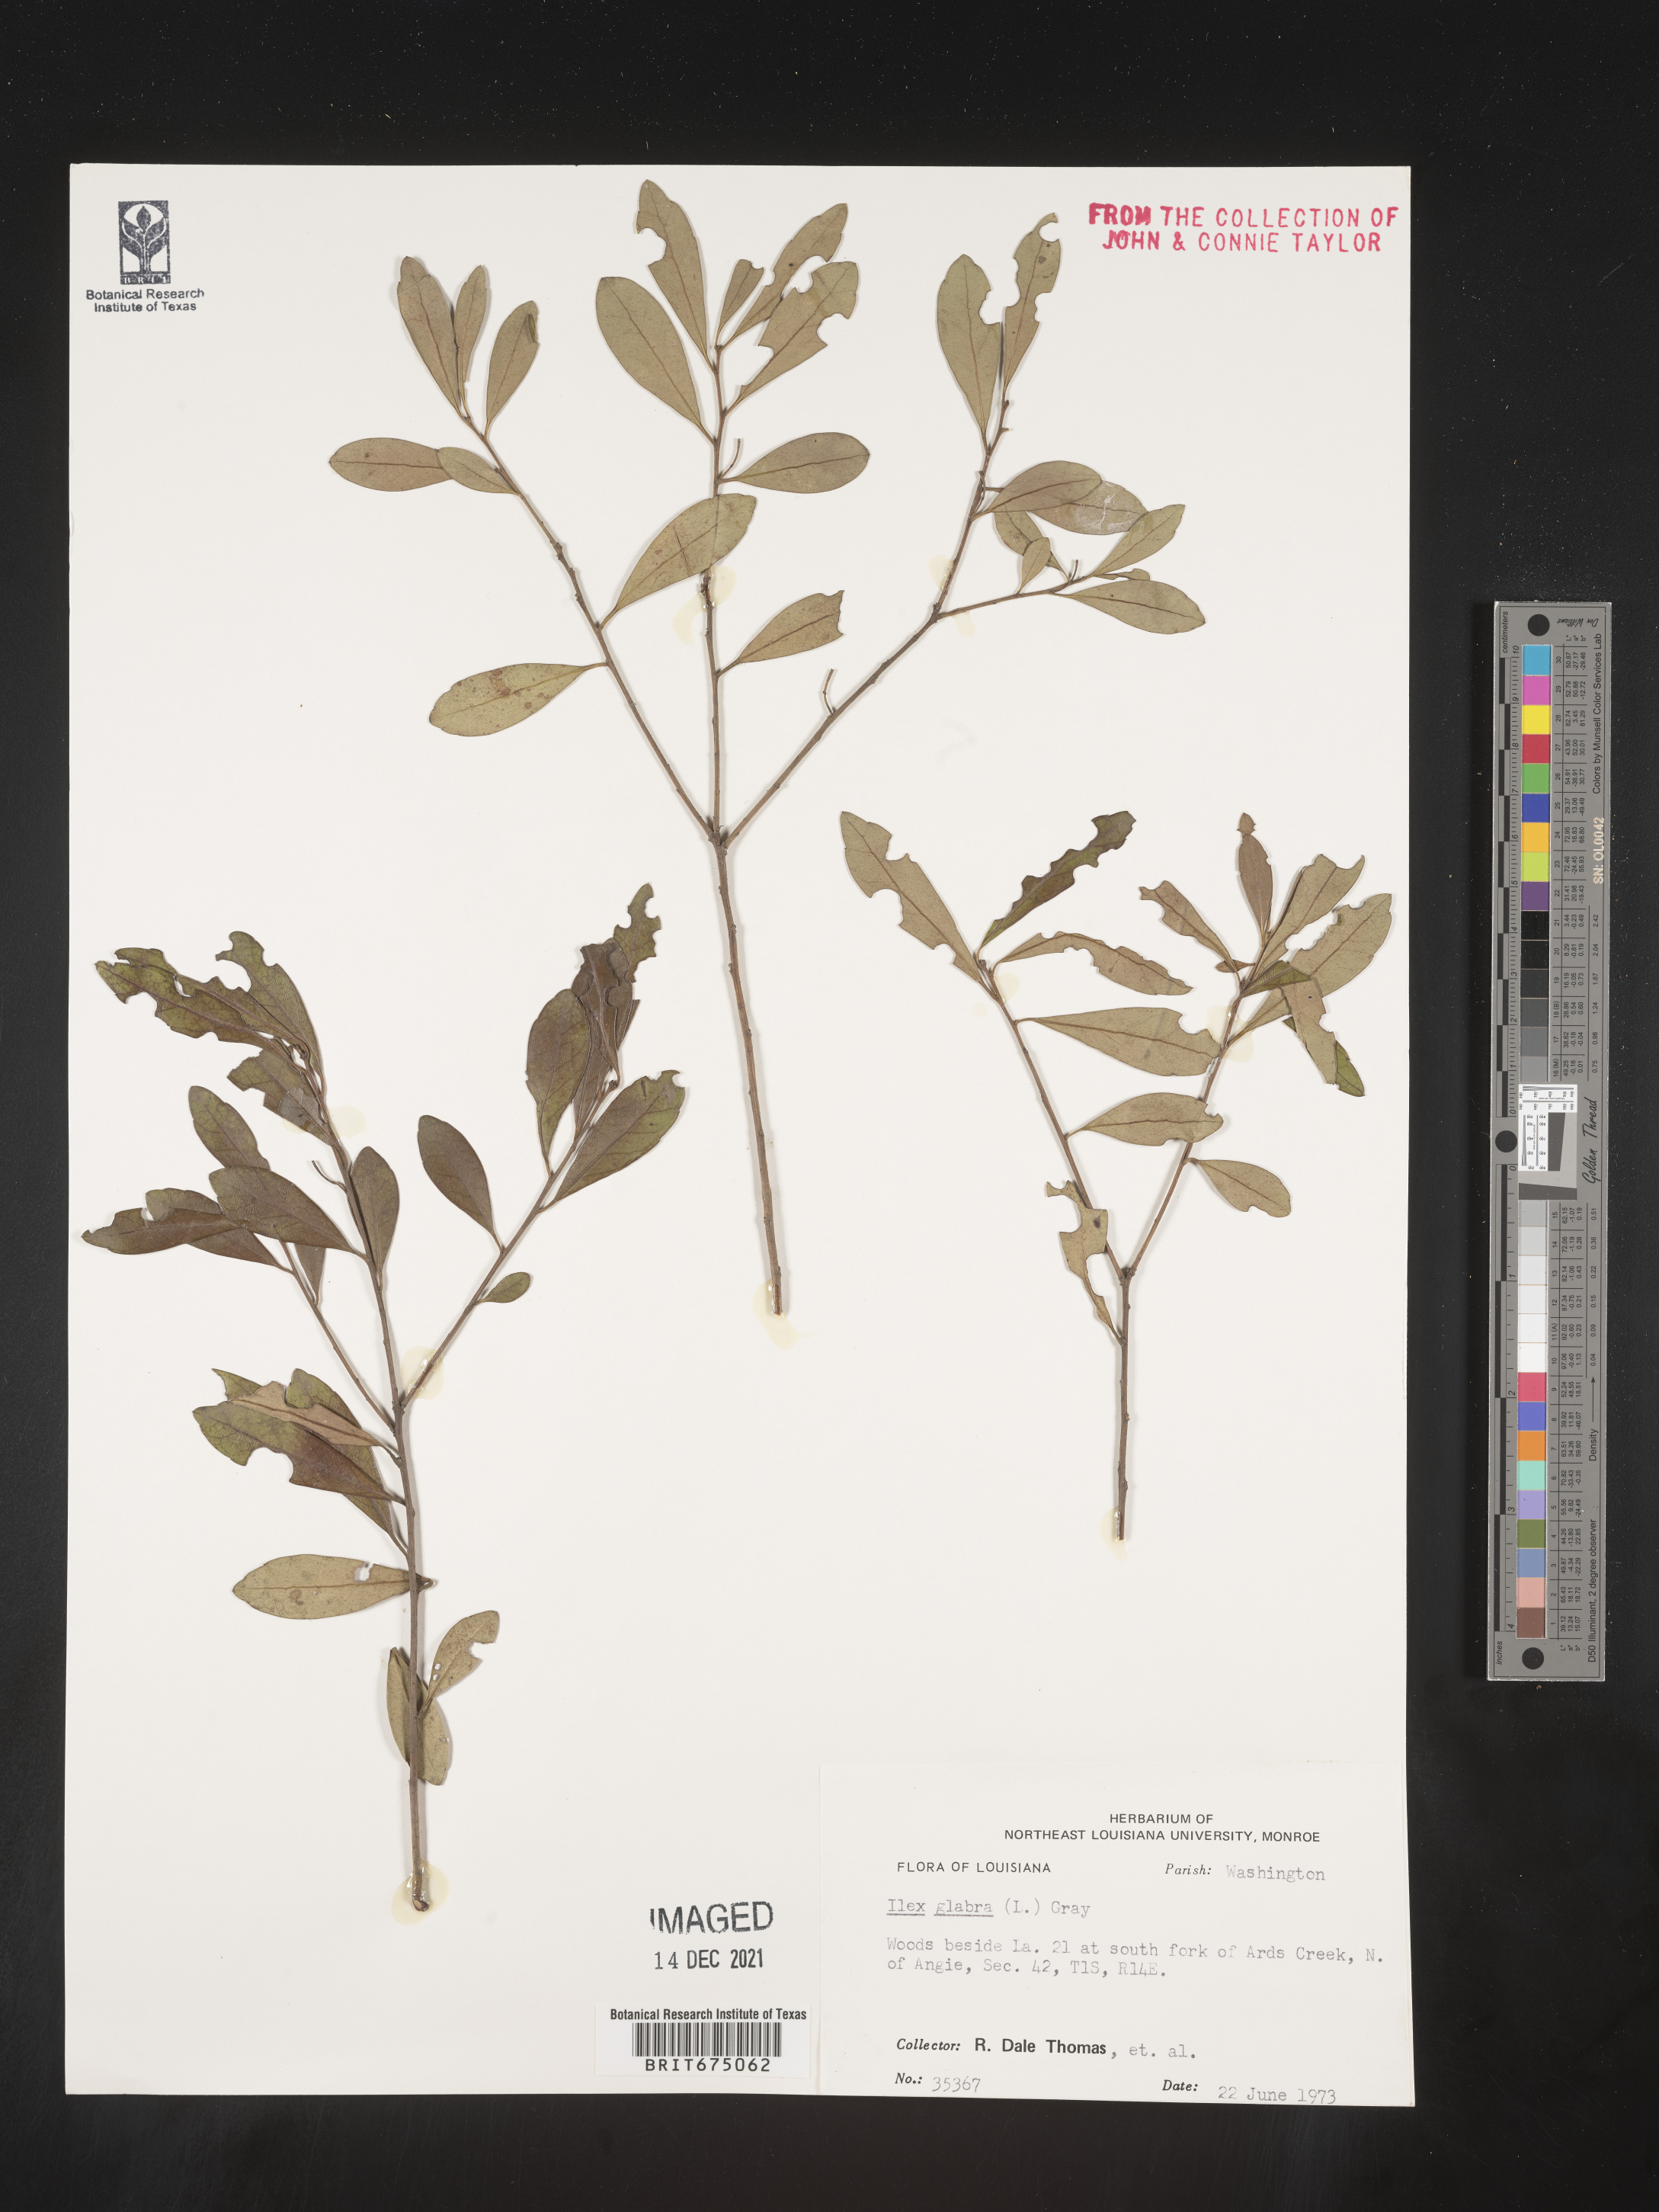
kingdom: Plantae
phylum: Tracheophyta
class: Magnoliopsida
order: Aquifoliales
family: Aquifoliaceae
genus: Ilex
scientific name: Ilex glabra
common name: Bitter gallberry
